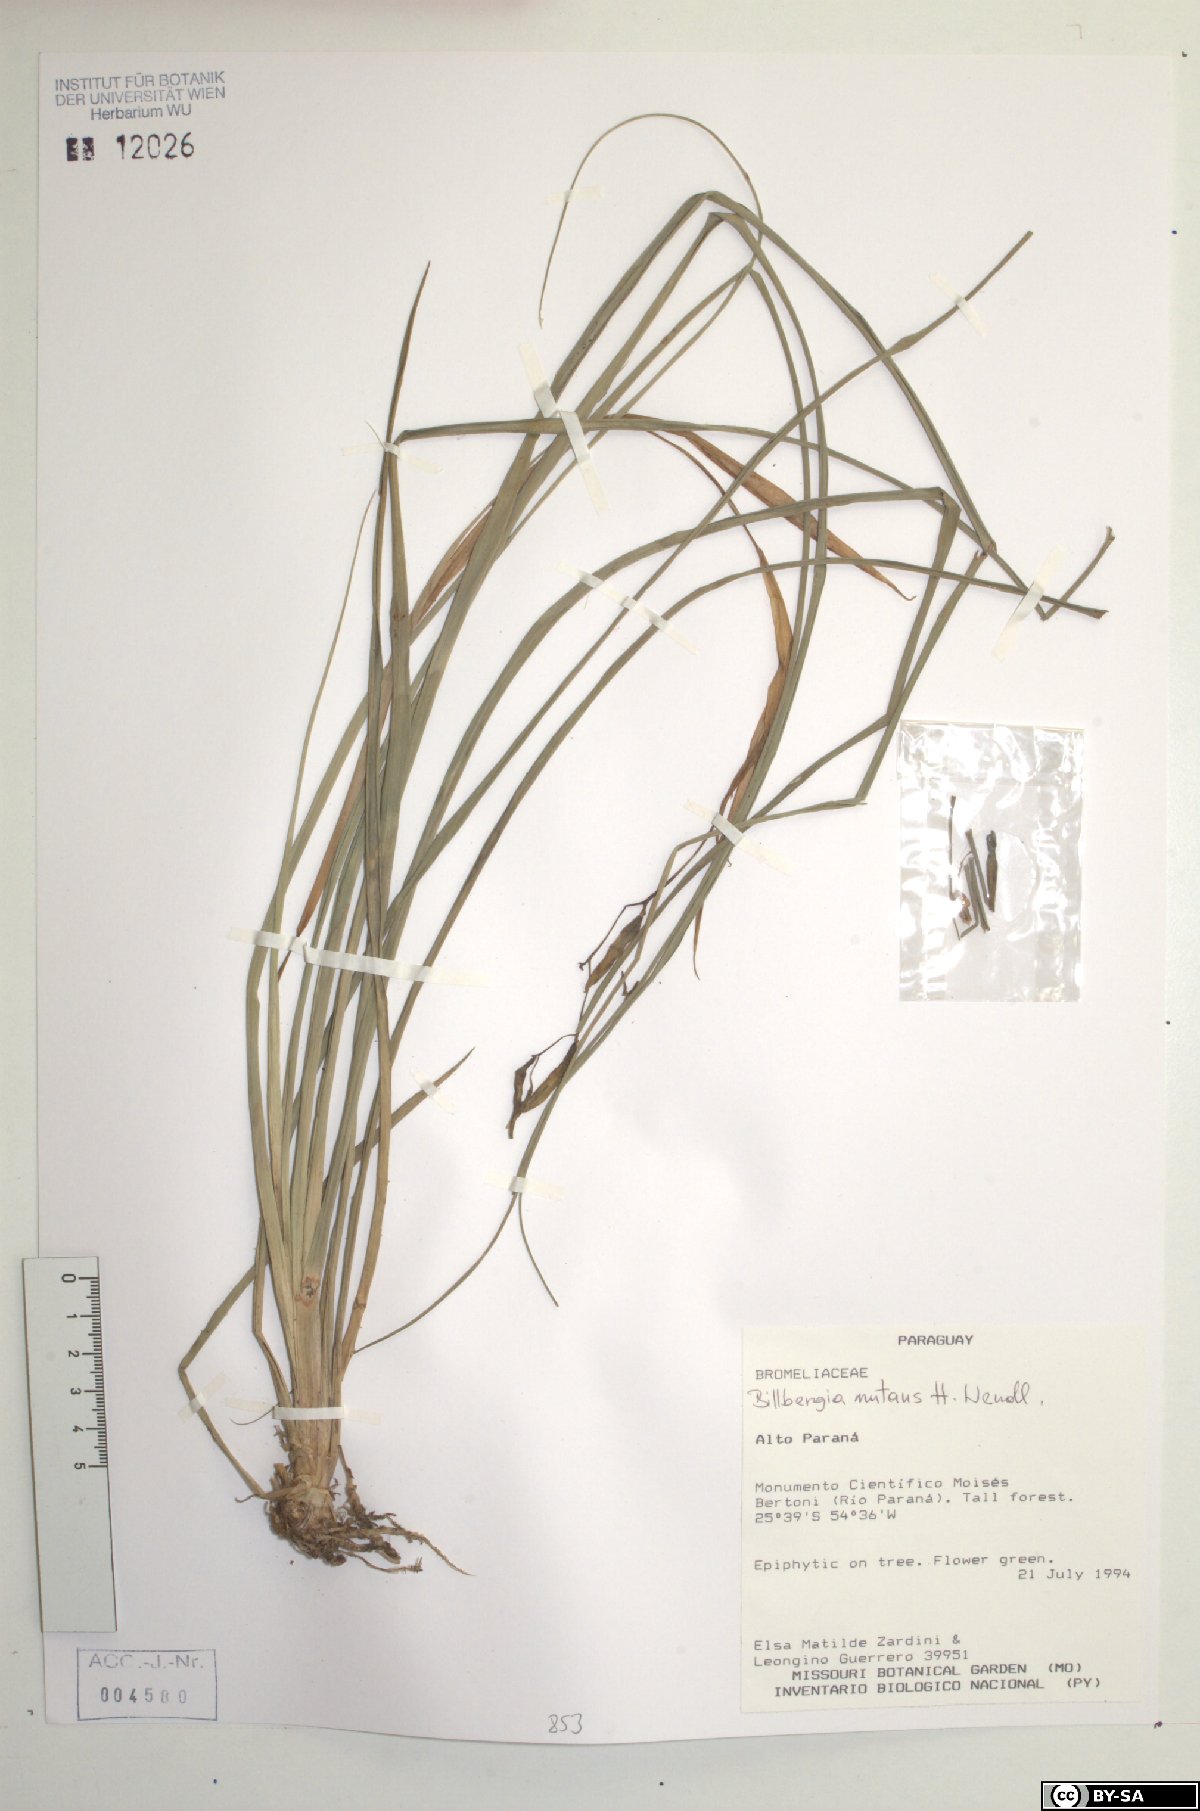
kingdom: Plantae
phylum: Tracheophyta
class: Liliopsida
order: Poales
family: Bromeliaceae
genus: Billbergia
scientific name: Billbergia nutans
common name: Friendship-plant
